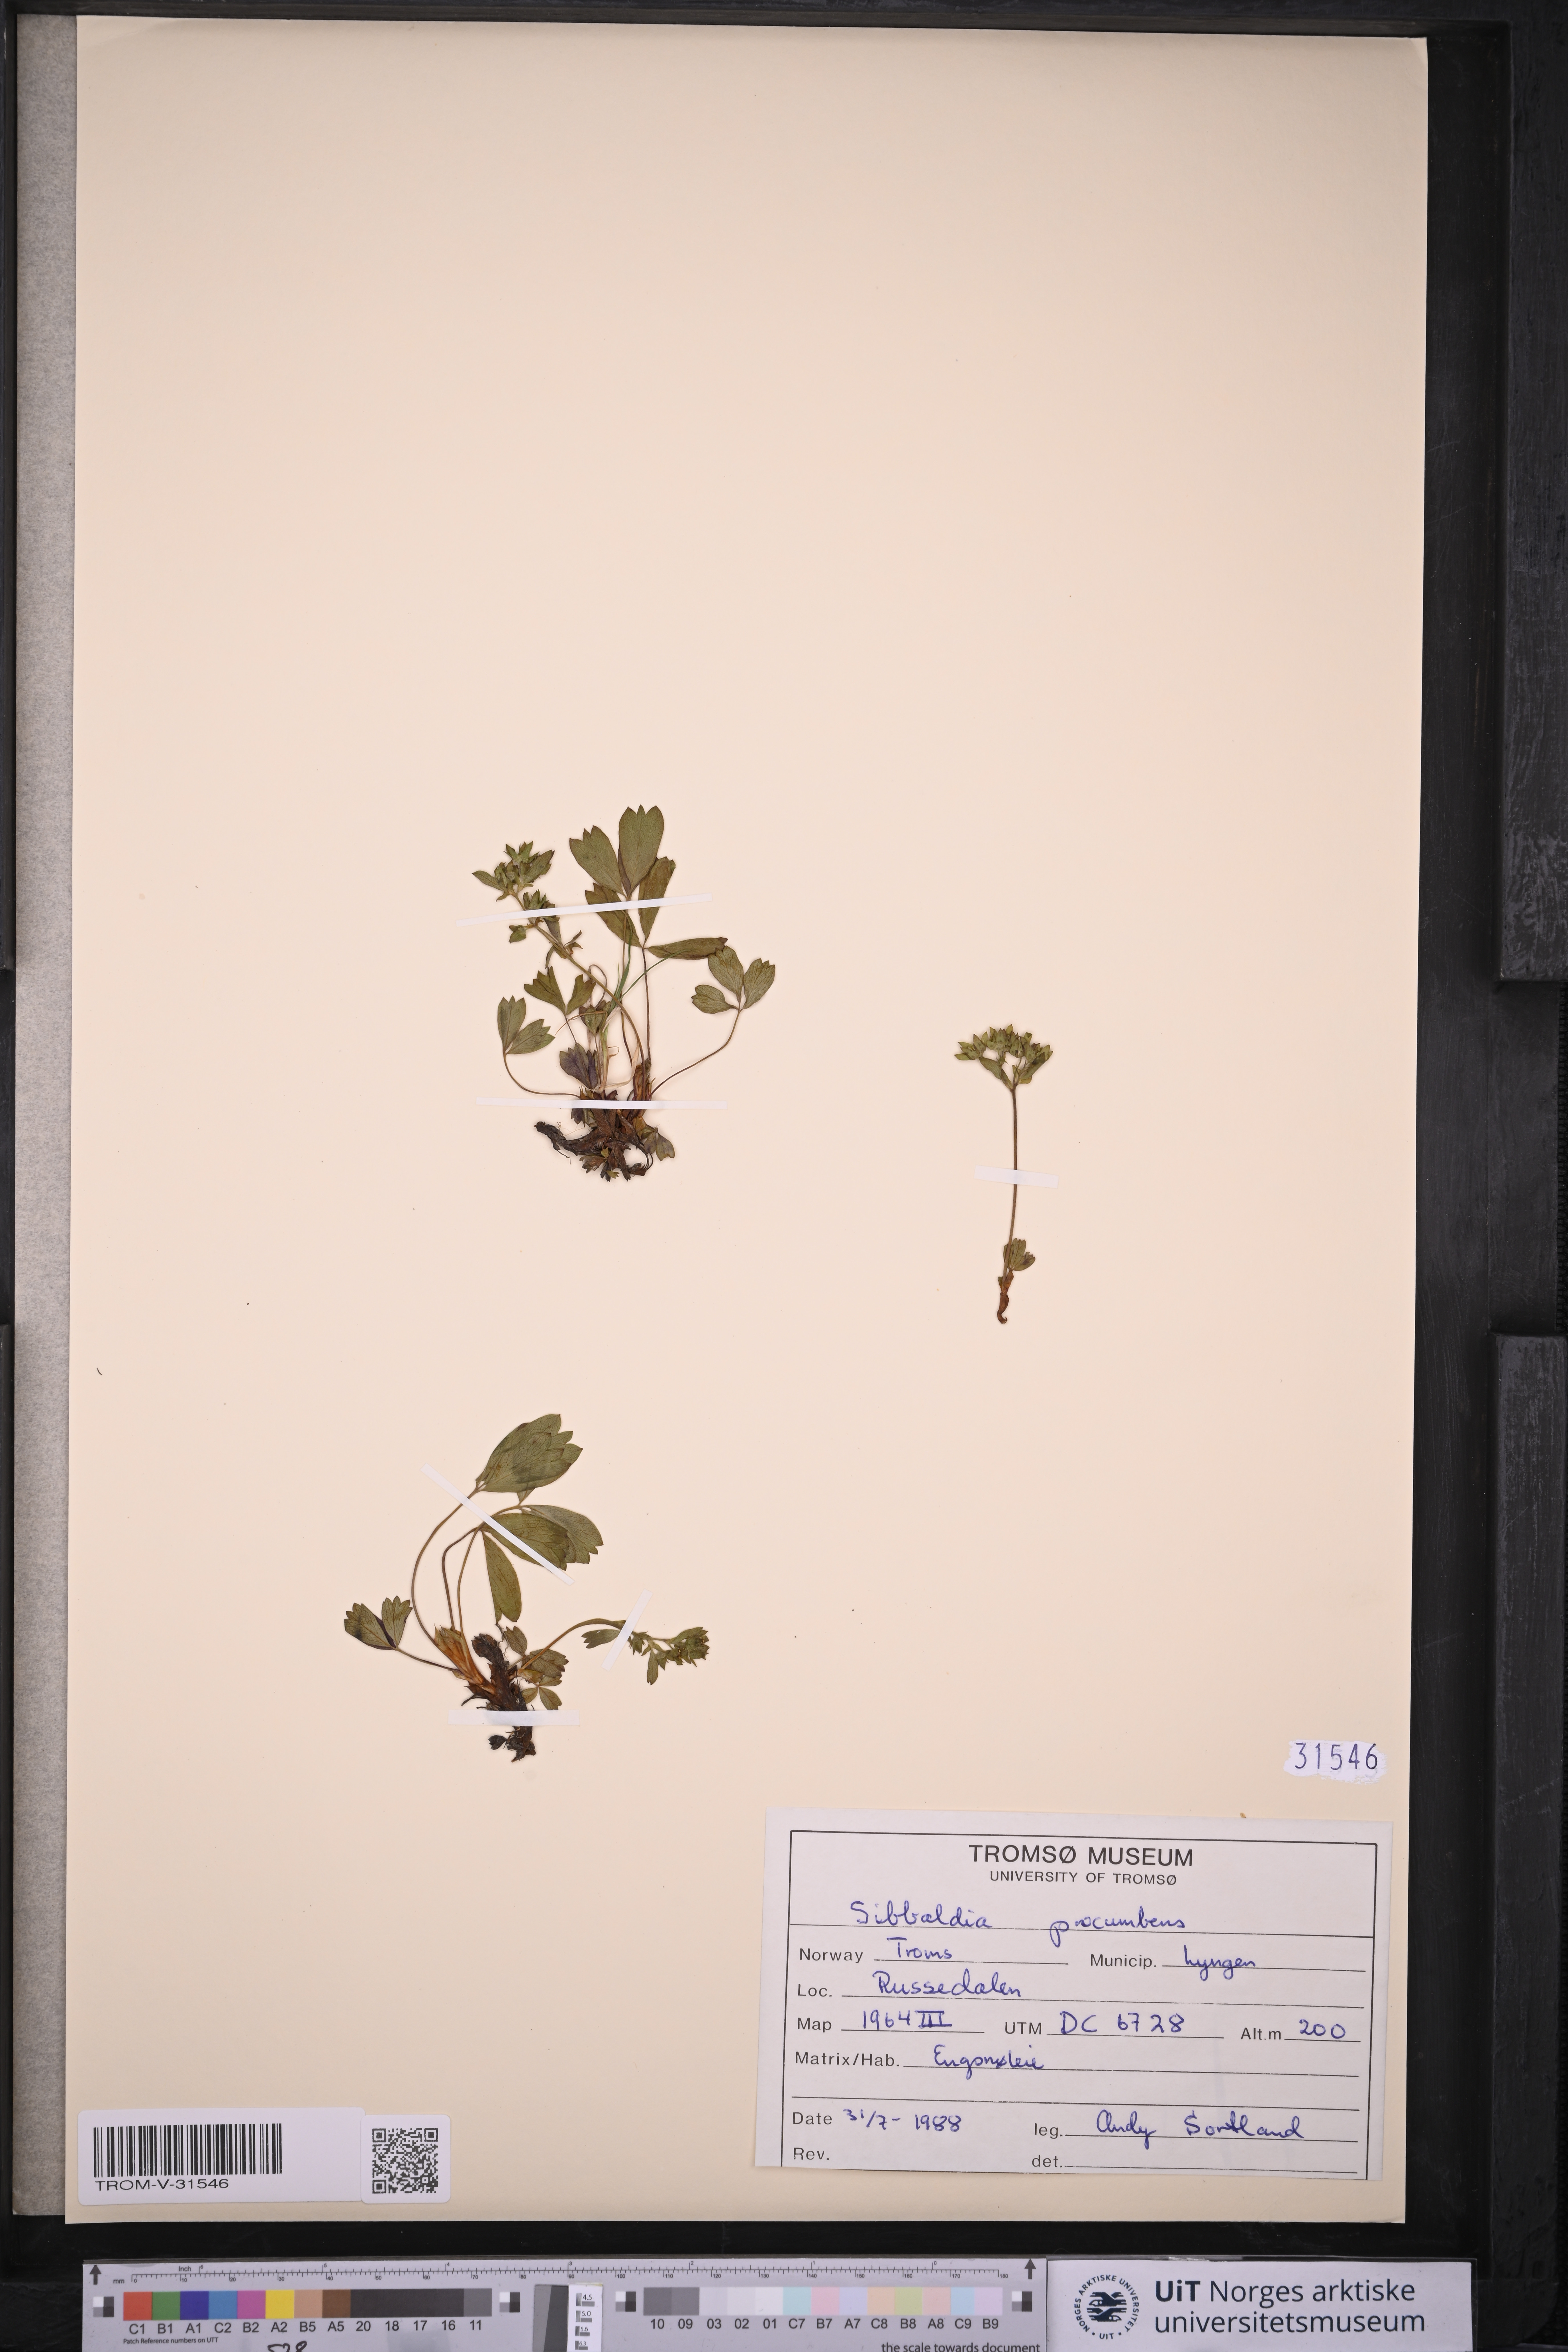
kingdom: Plantae
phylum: Tracheophyta
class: Magnoliopsida
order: Rosales
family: Rosaceae
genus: Sibbaldia
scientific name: Sibbaldia procumbens
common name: Creeping sibbaldia
